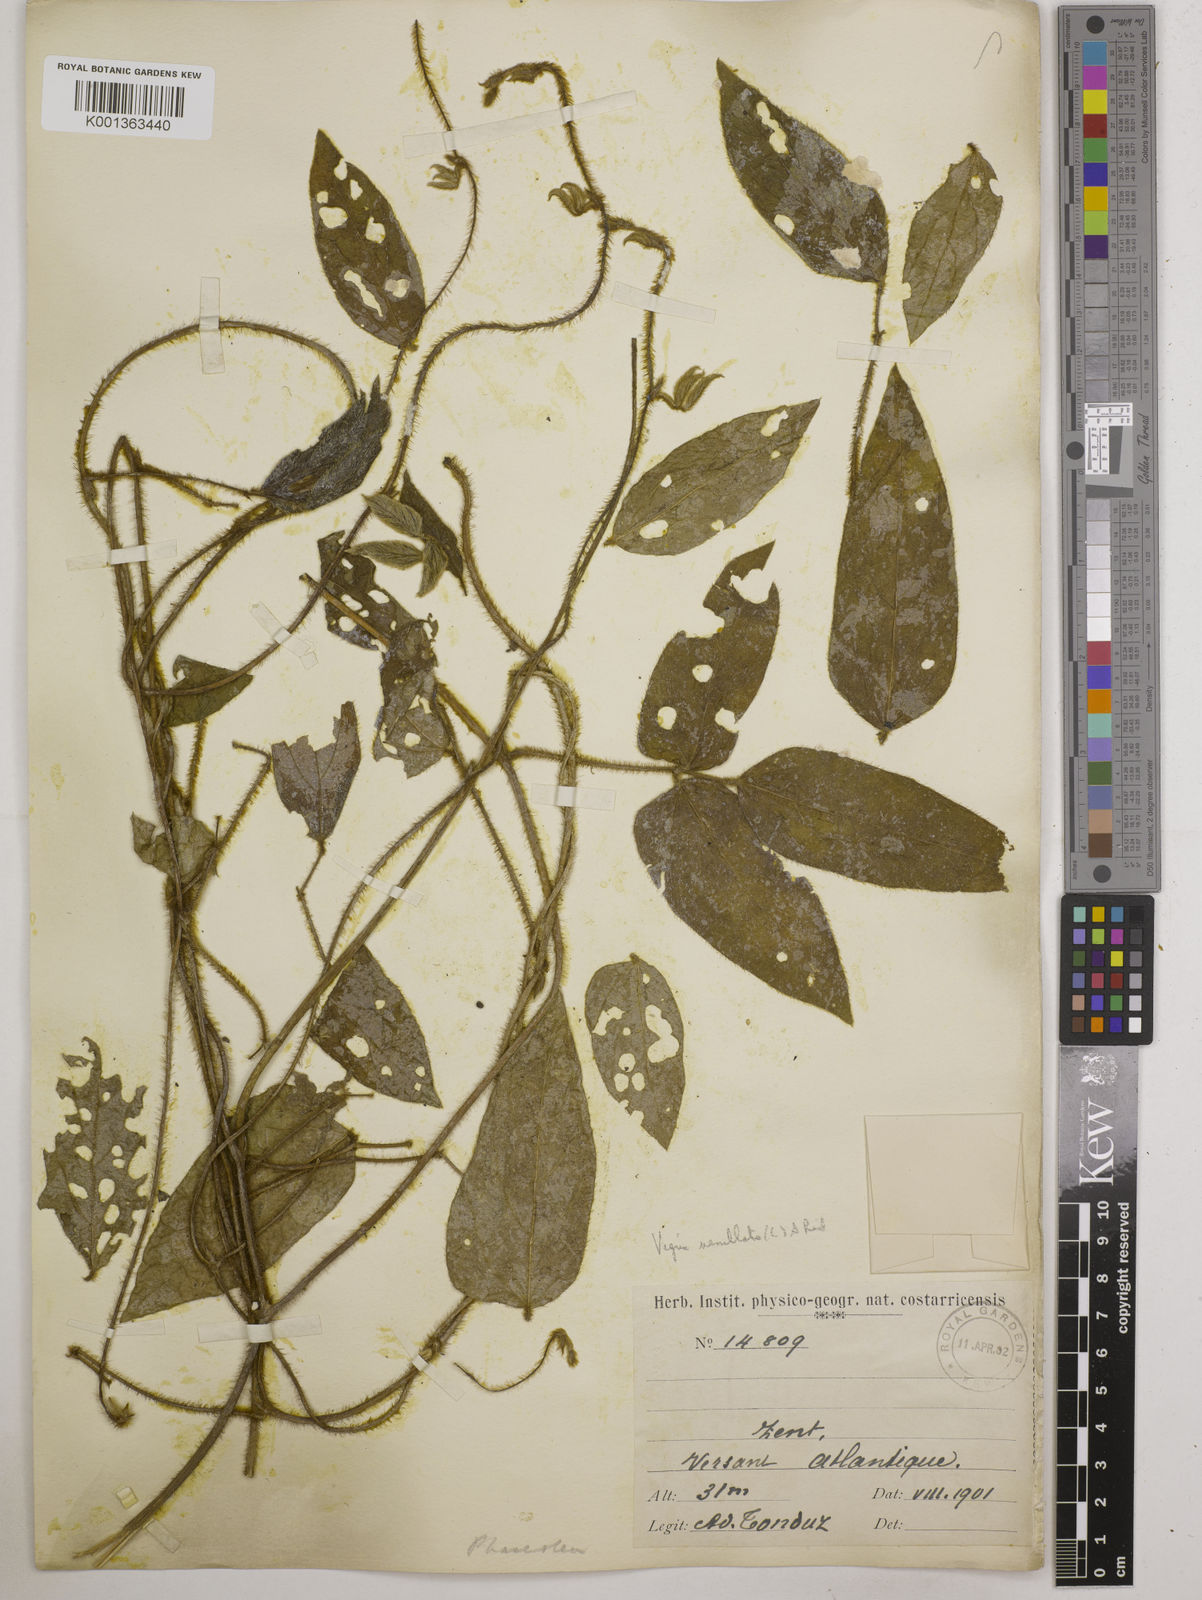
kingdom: Plantae
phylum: Tracheophyta
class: Magnoliopsida
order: Fabales
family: Fabaceae
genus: Vigna
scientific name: Vigna vexillata
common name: Zombi pea
